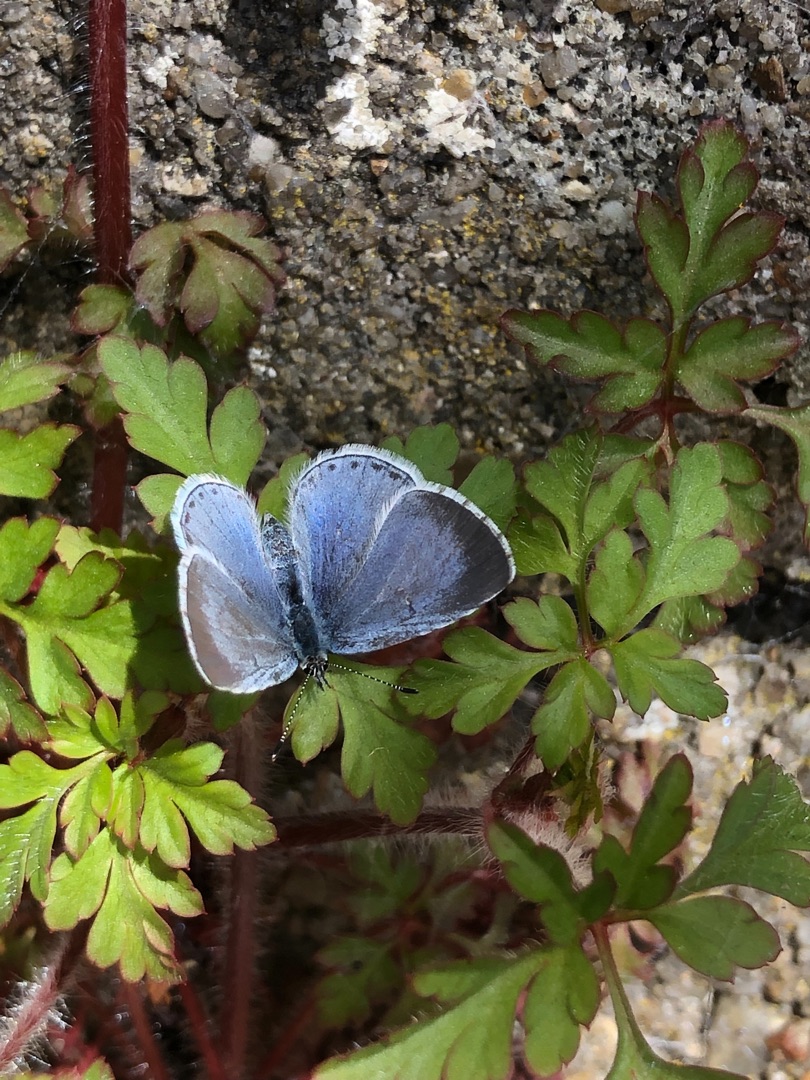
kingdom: Animalia
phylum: Arthropoda
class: Insecta
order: Lepidoptera
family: Lycaenidae
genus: Celastrina
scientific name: Celastrina argiolus
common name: Skovblåfugl
